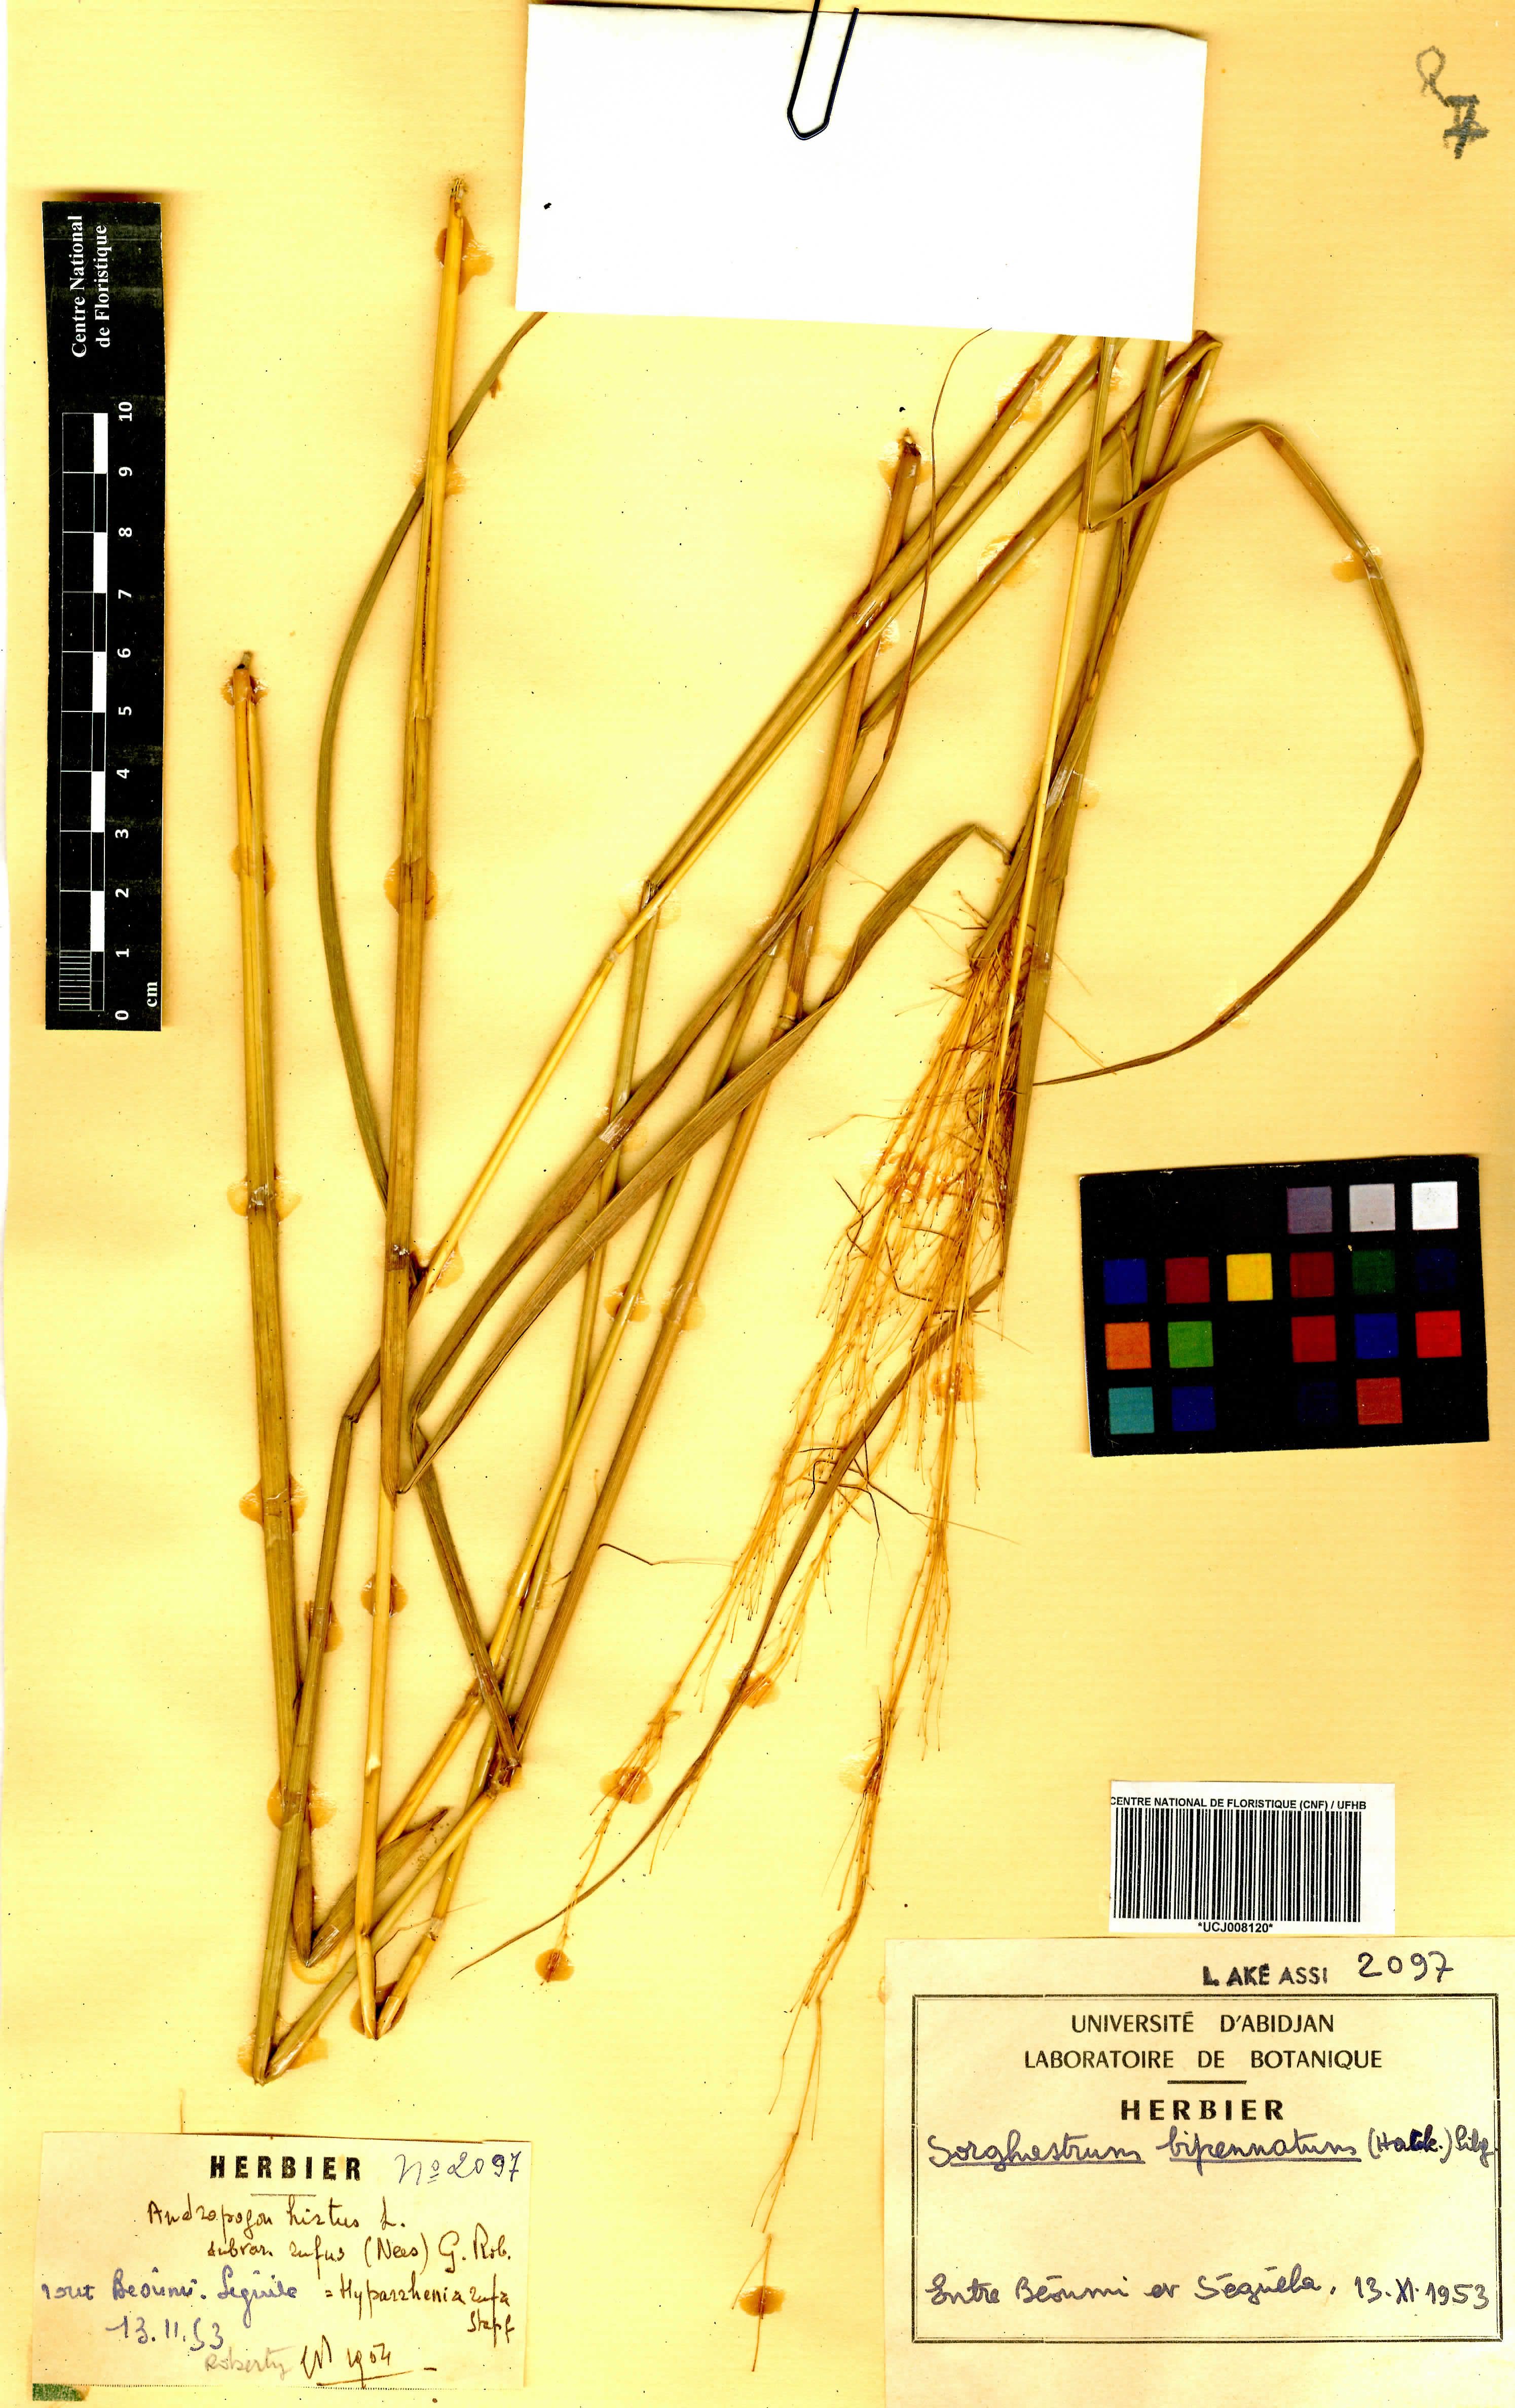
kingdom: Plantae
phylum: Tracheophyta
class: Liliopsida
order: Poales
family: Poaceae
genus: Sorghastrum
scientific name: Sorghastrum incompletum
